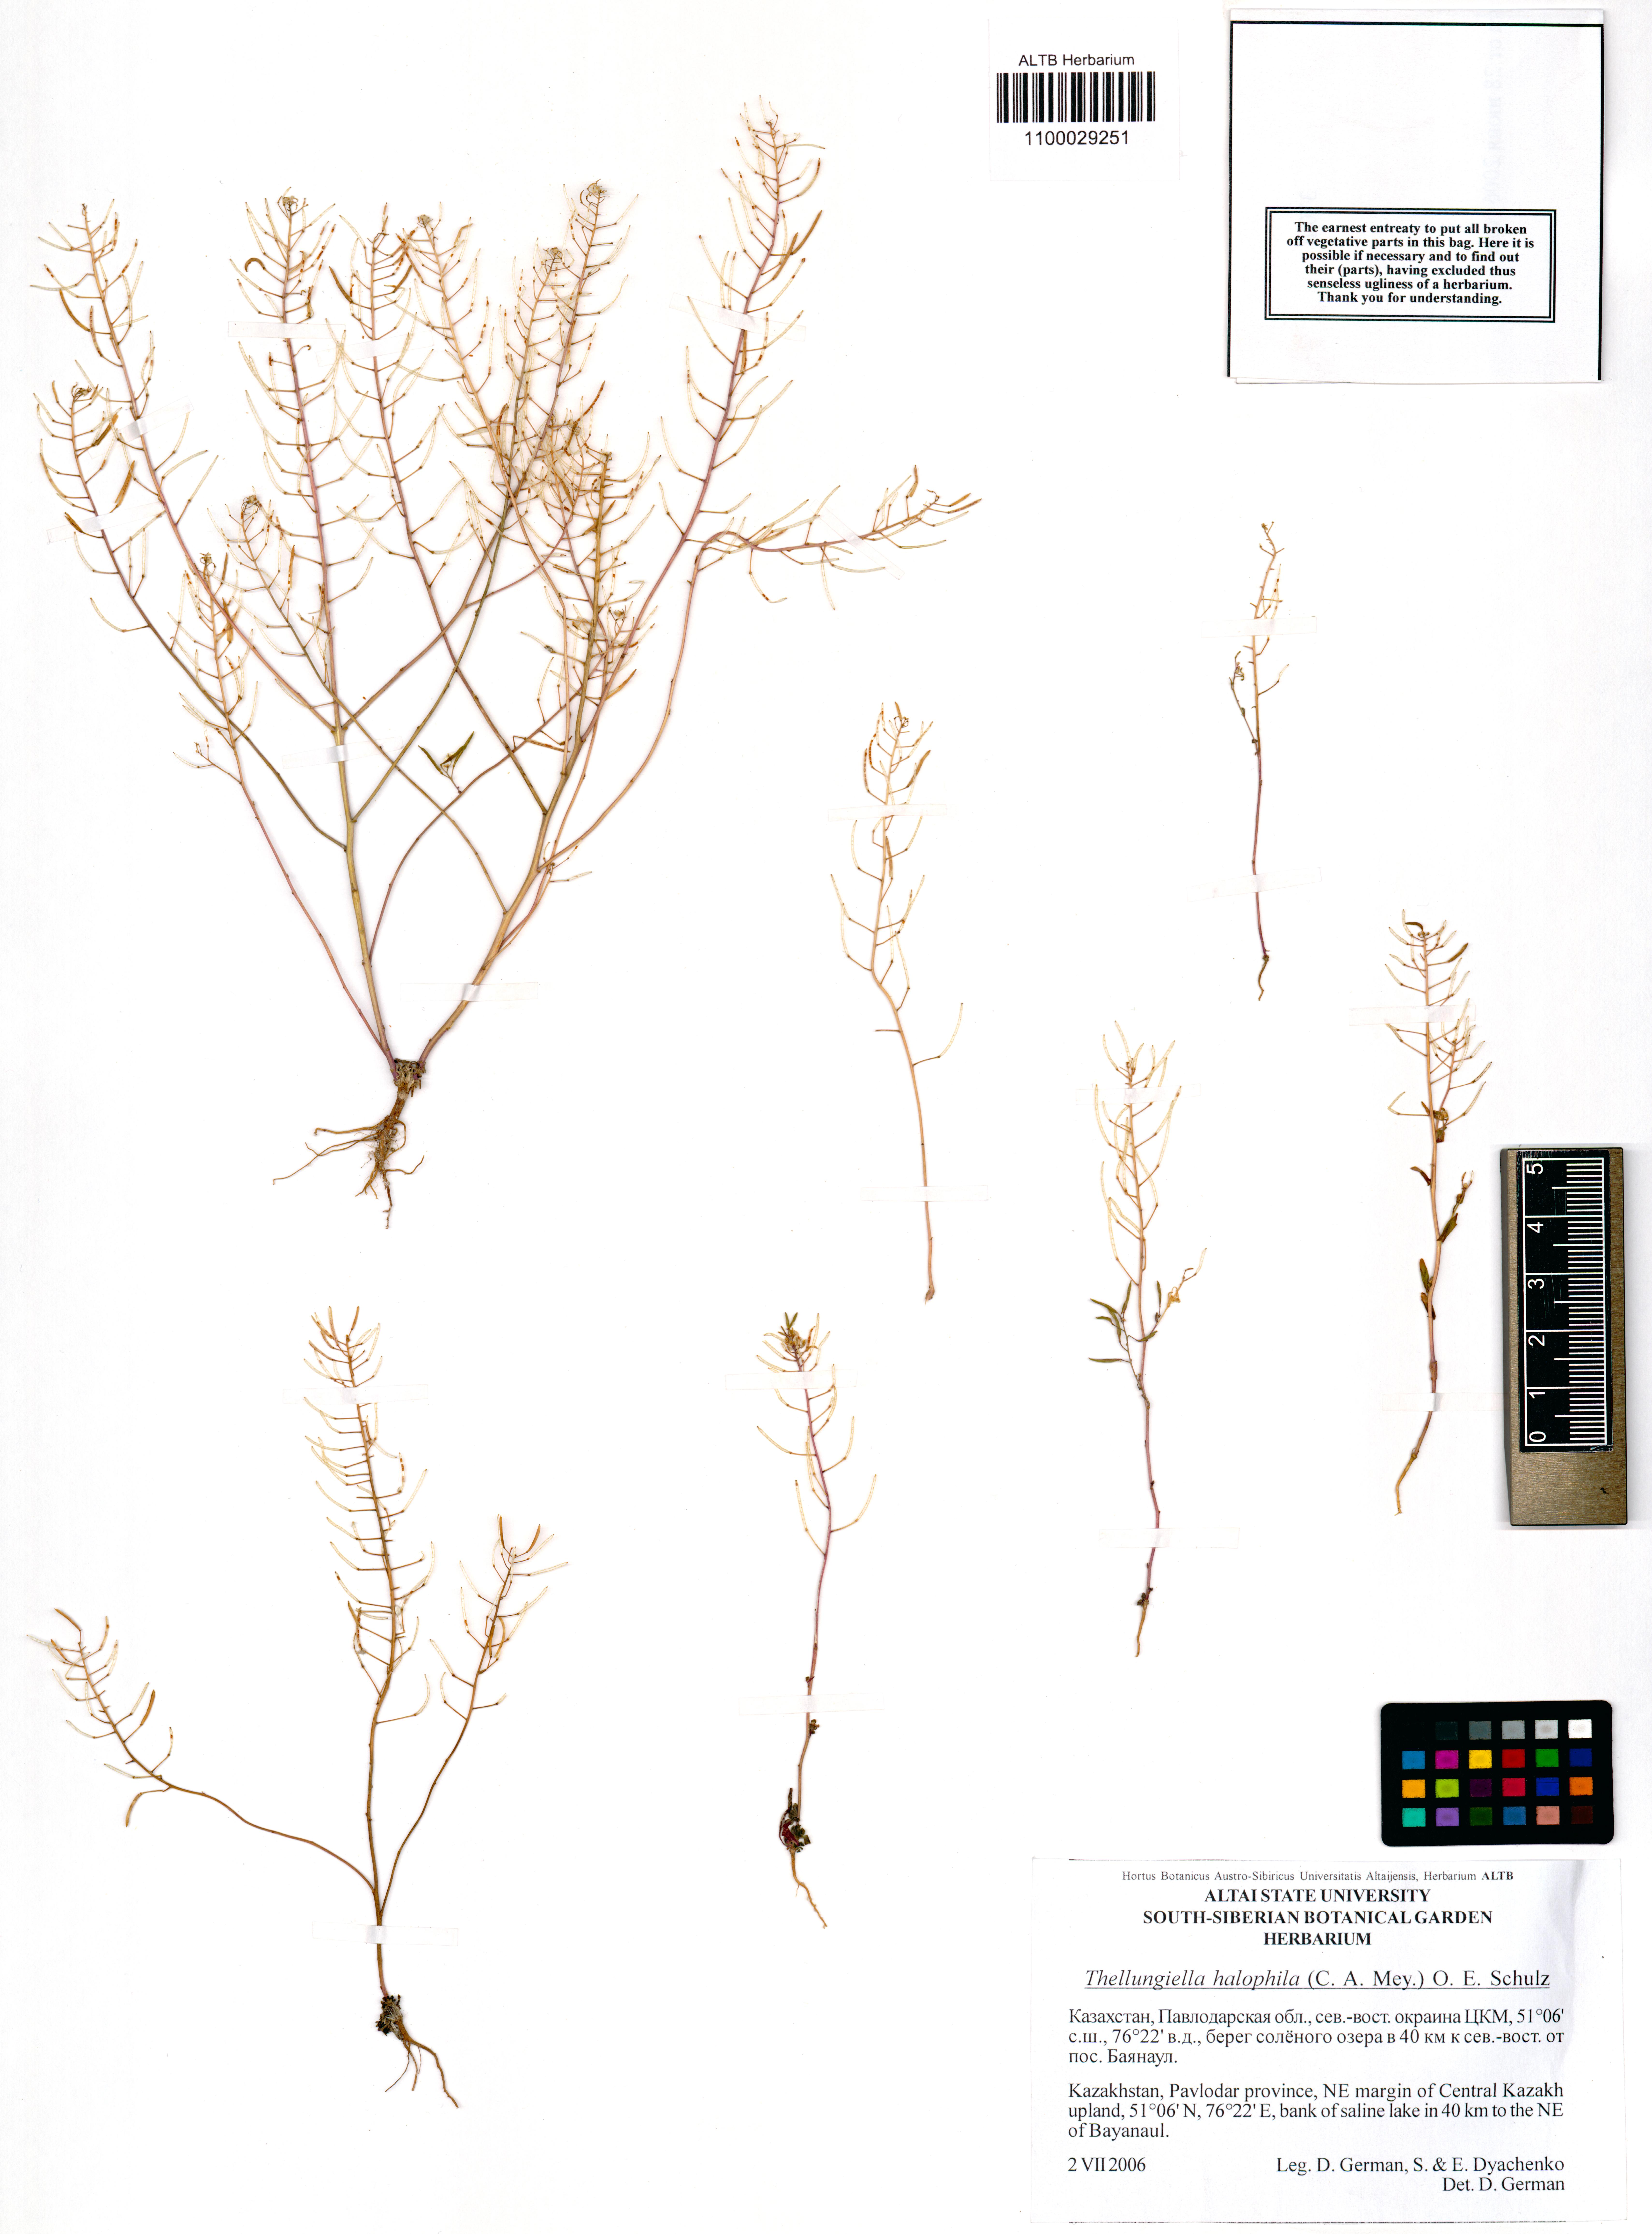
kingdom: Plantae
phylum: Tracheophyta
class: Magnoliopsida
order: Brassicales
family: Brassicaceae
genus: Eutrema
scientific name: Eutrema halophilum
